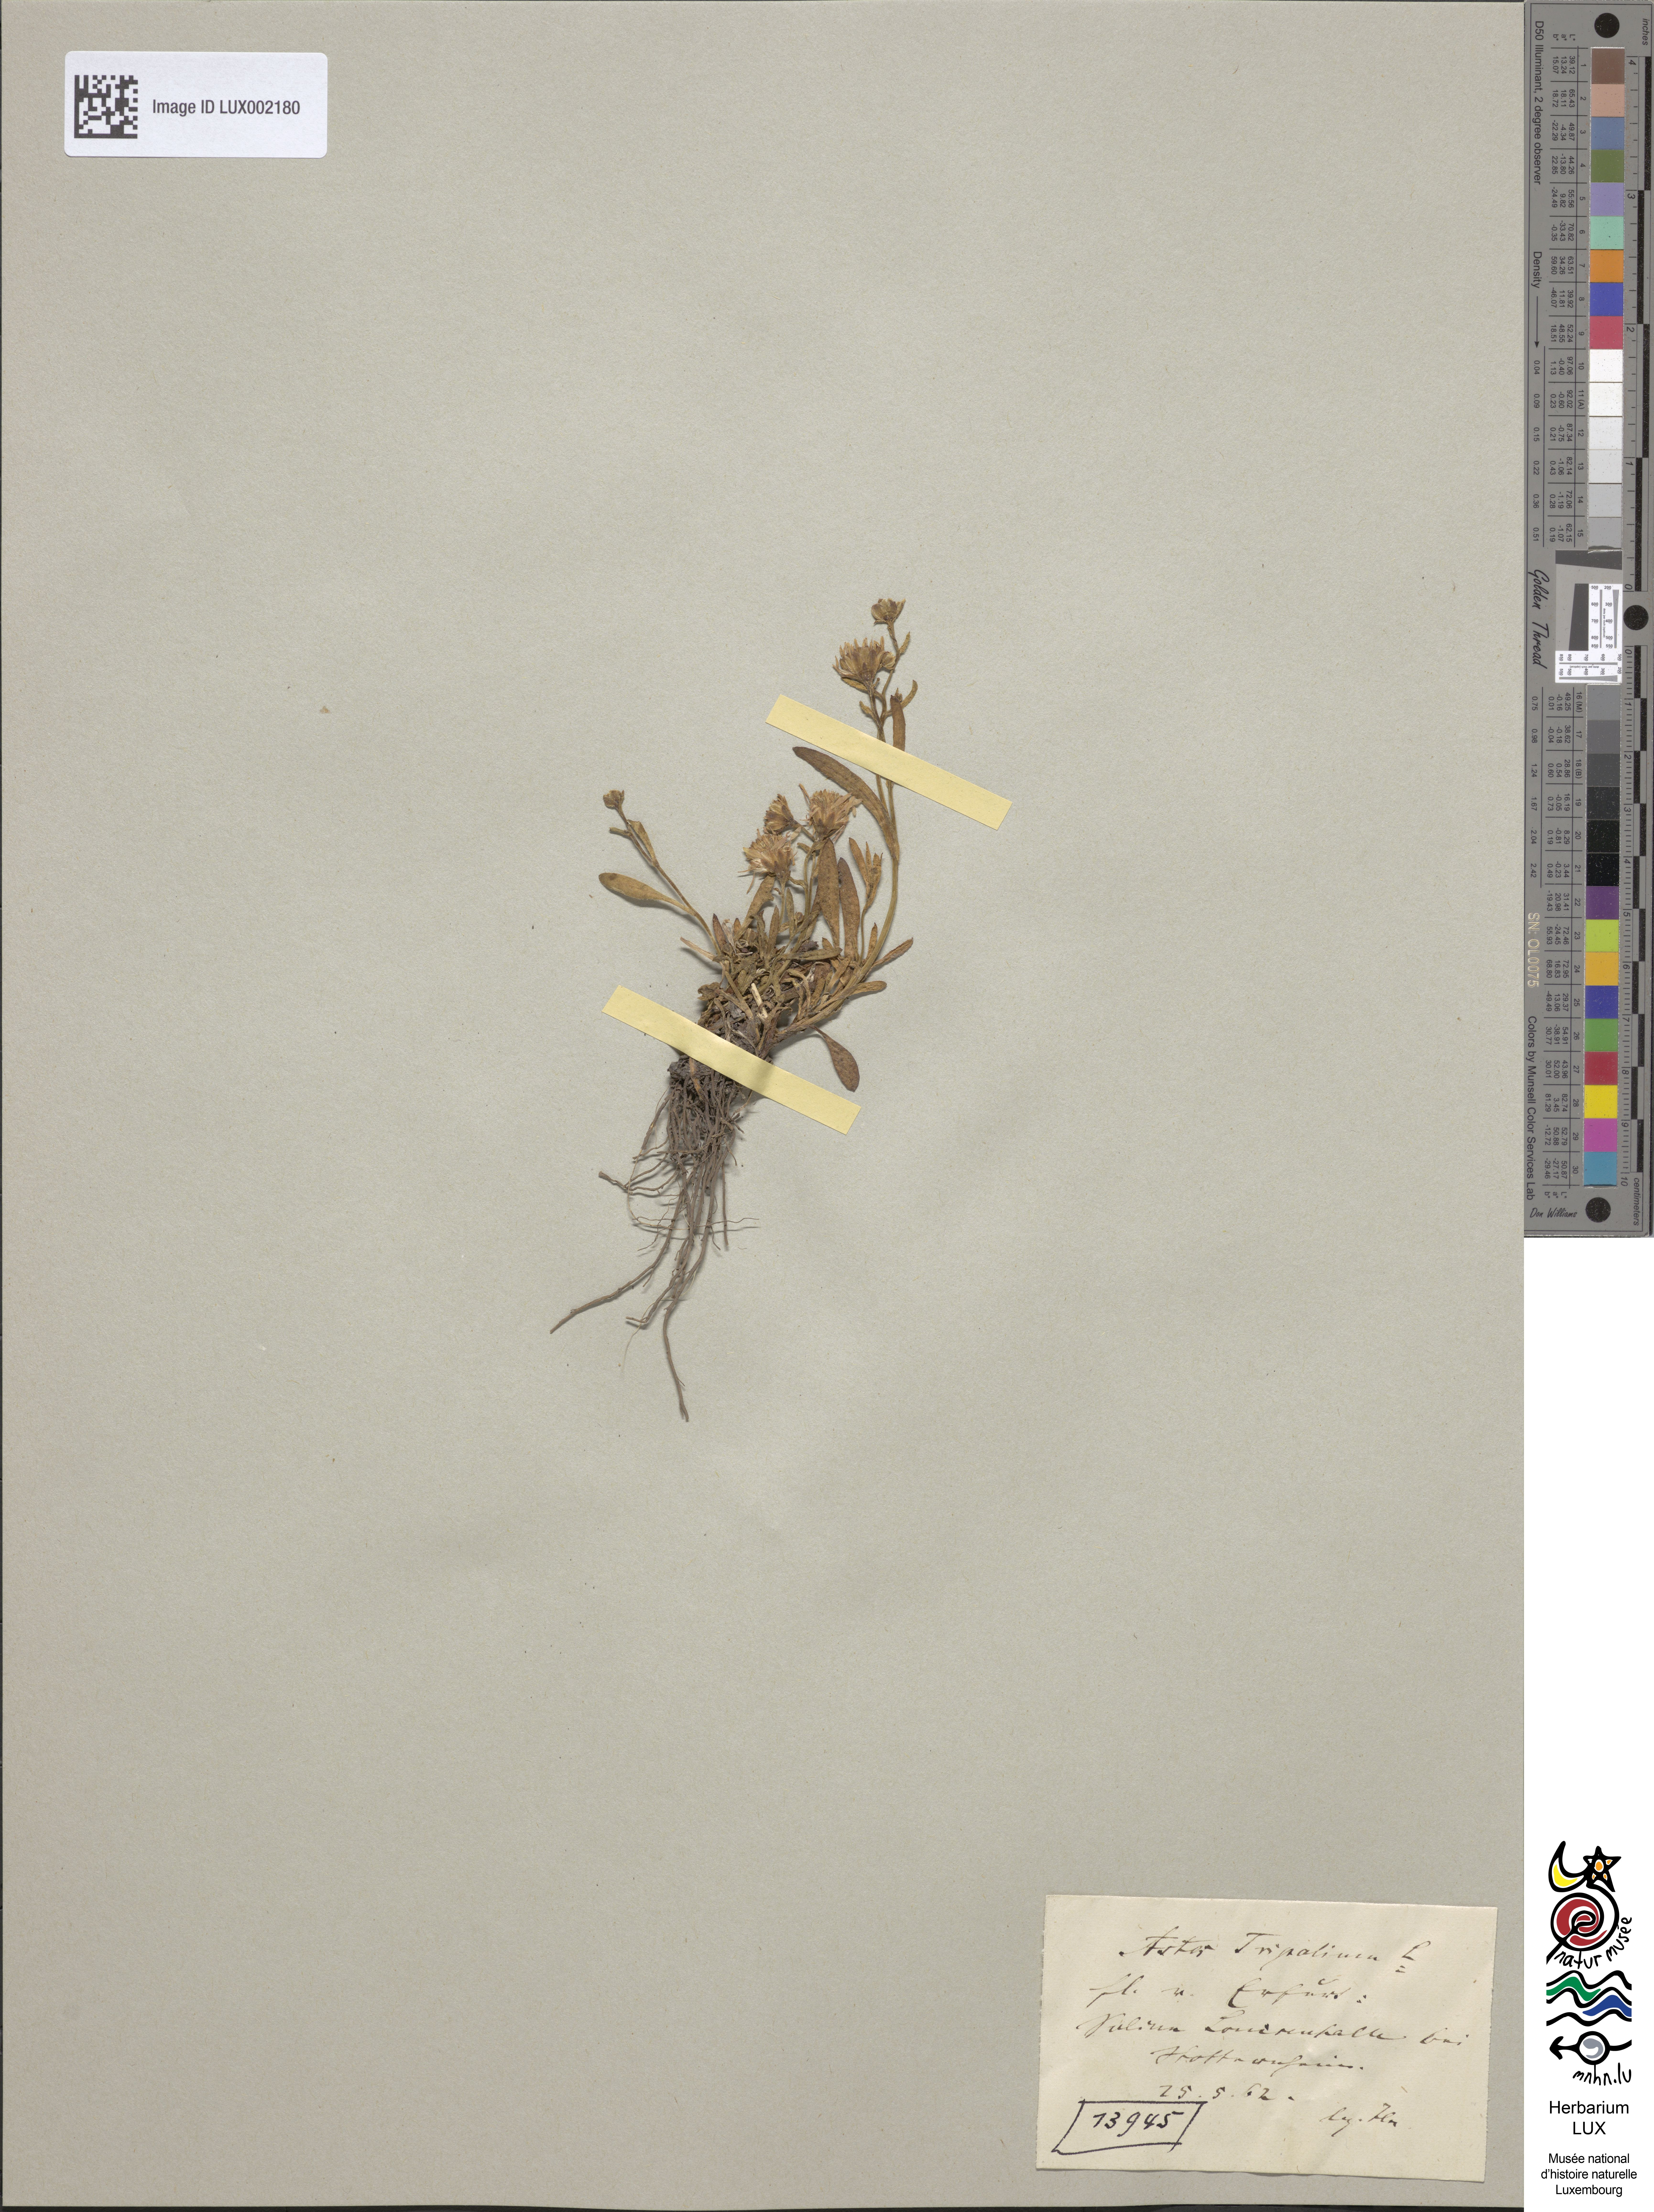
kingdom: Plantae
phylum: Tracheophyta
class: Magnoliopsida
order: Asterales
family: Asteraceae
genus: Tripolium
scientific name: Tripolium pannonicum
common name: Sea aster
